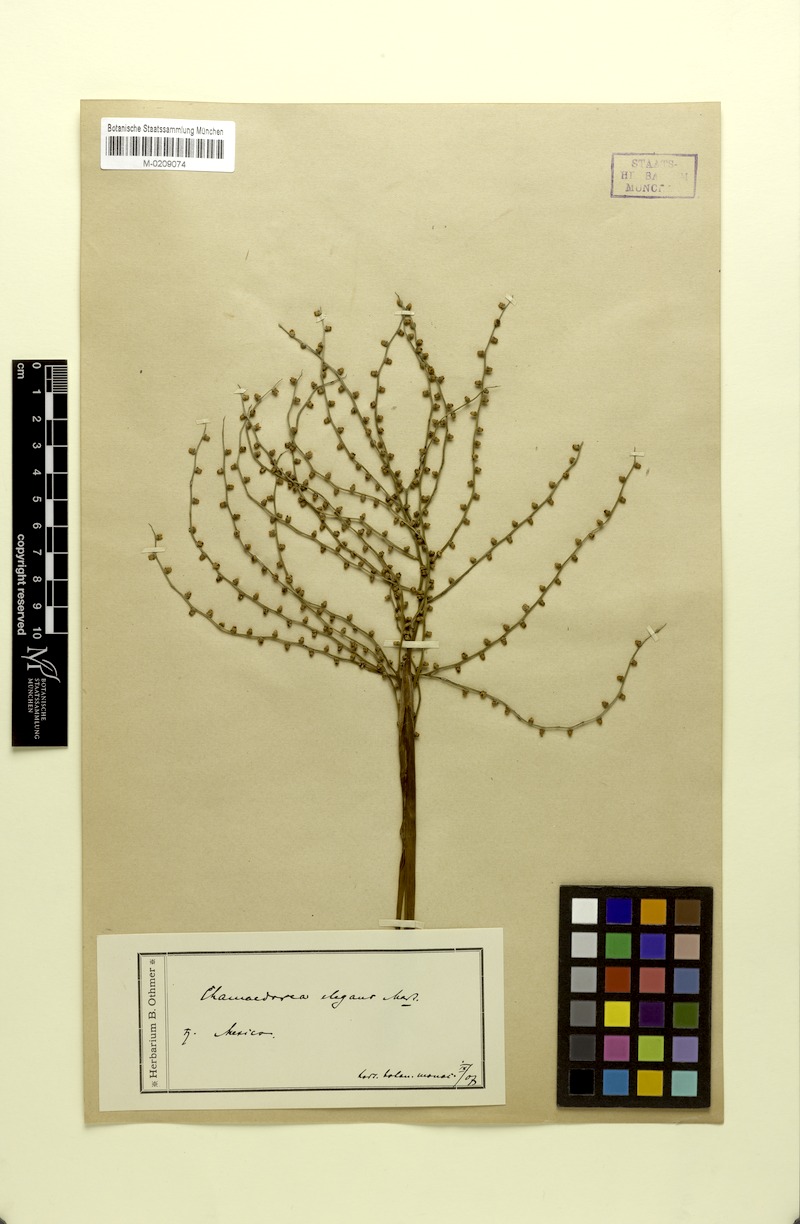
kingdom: Plantae
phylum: Tracheophyta
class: Liliopsida
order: Arecales
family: Arecaceae
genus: Chamaedorea
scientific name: Chamaedorea elegans
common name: Good-luck palm
